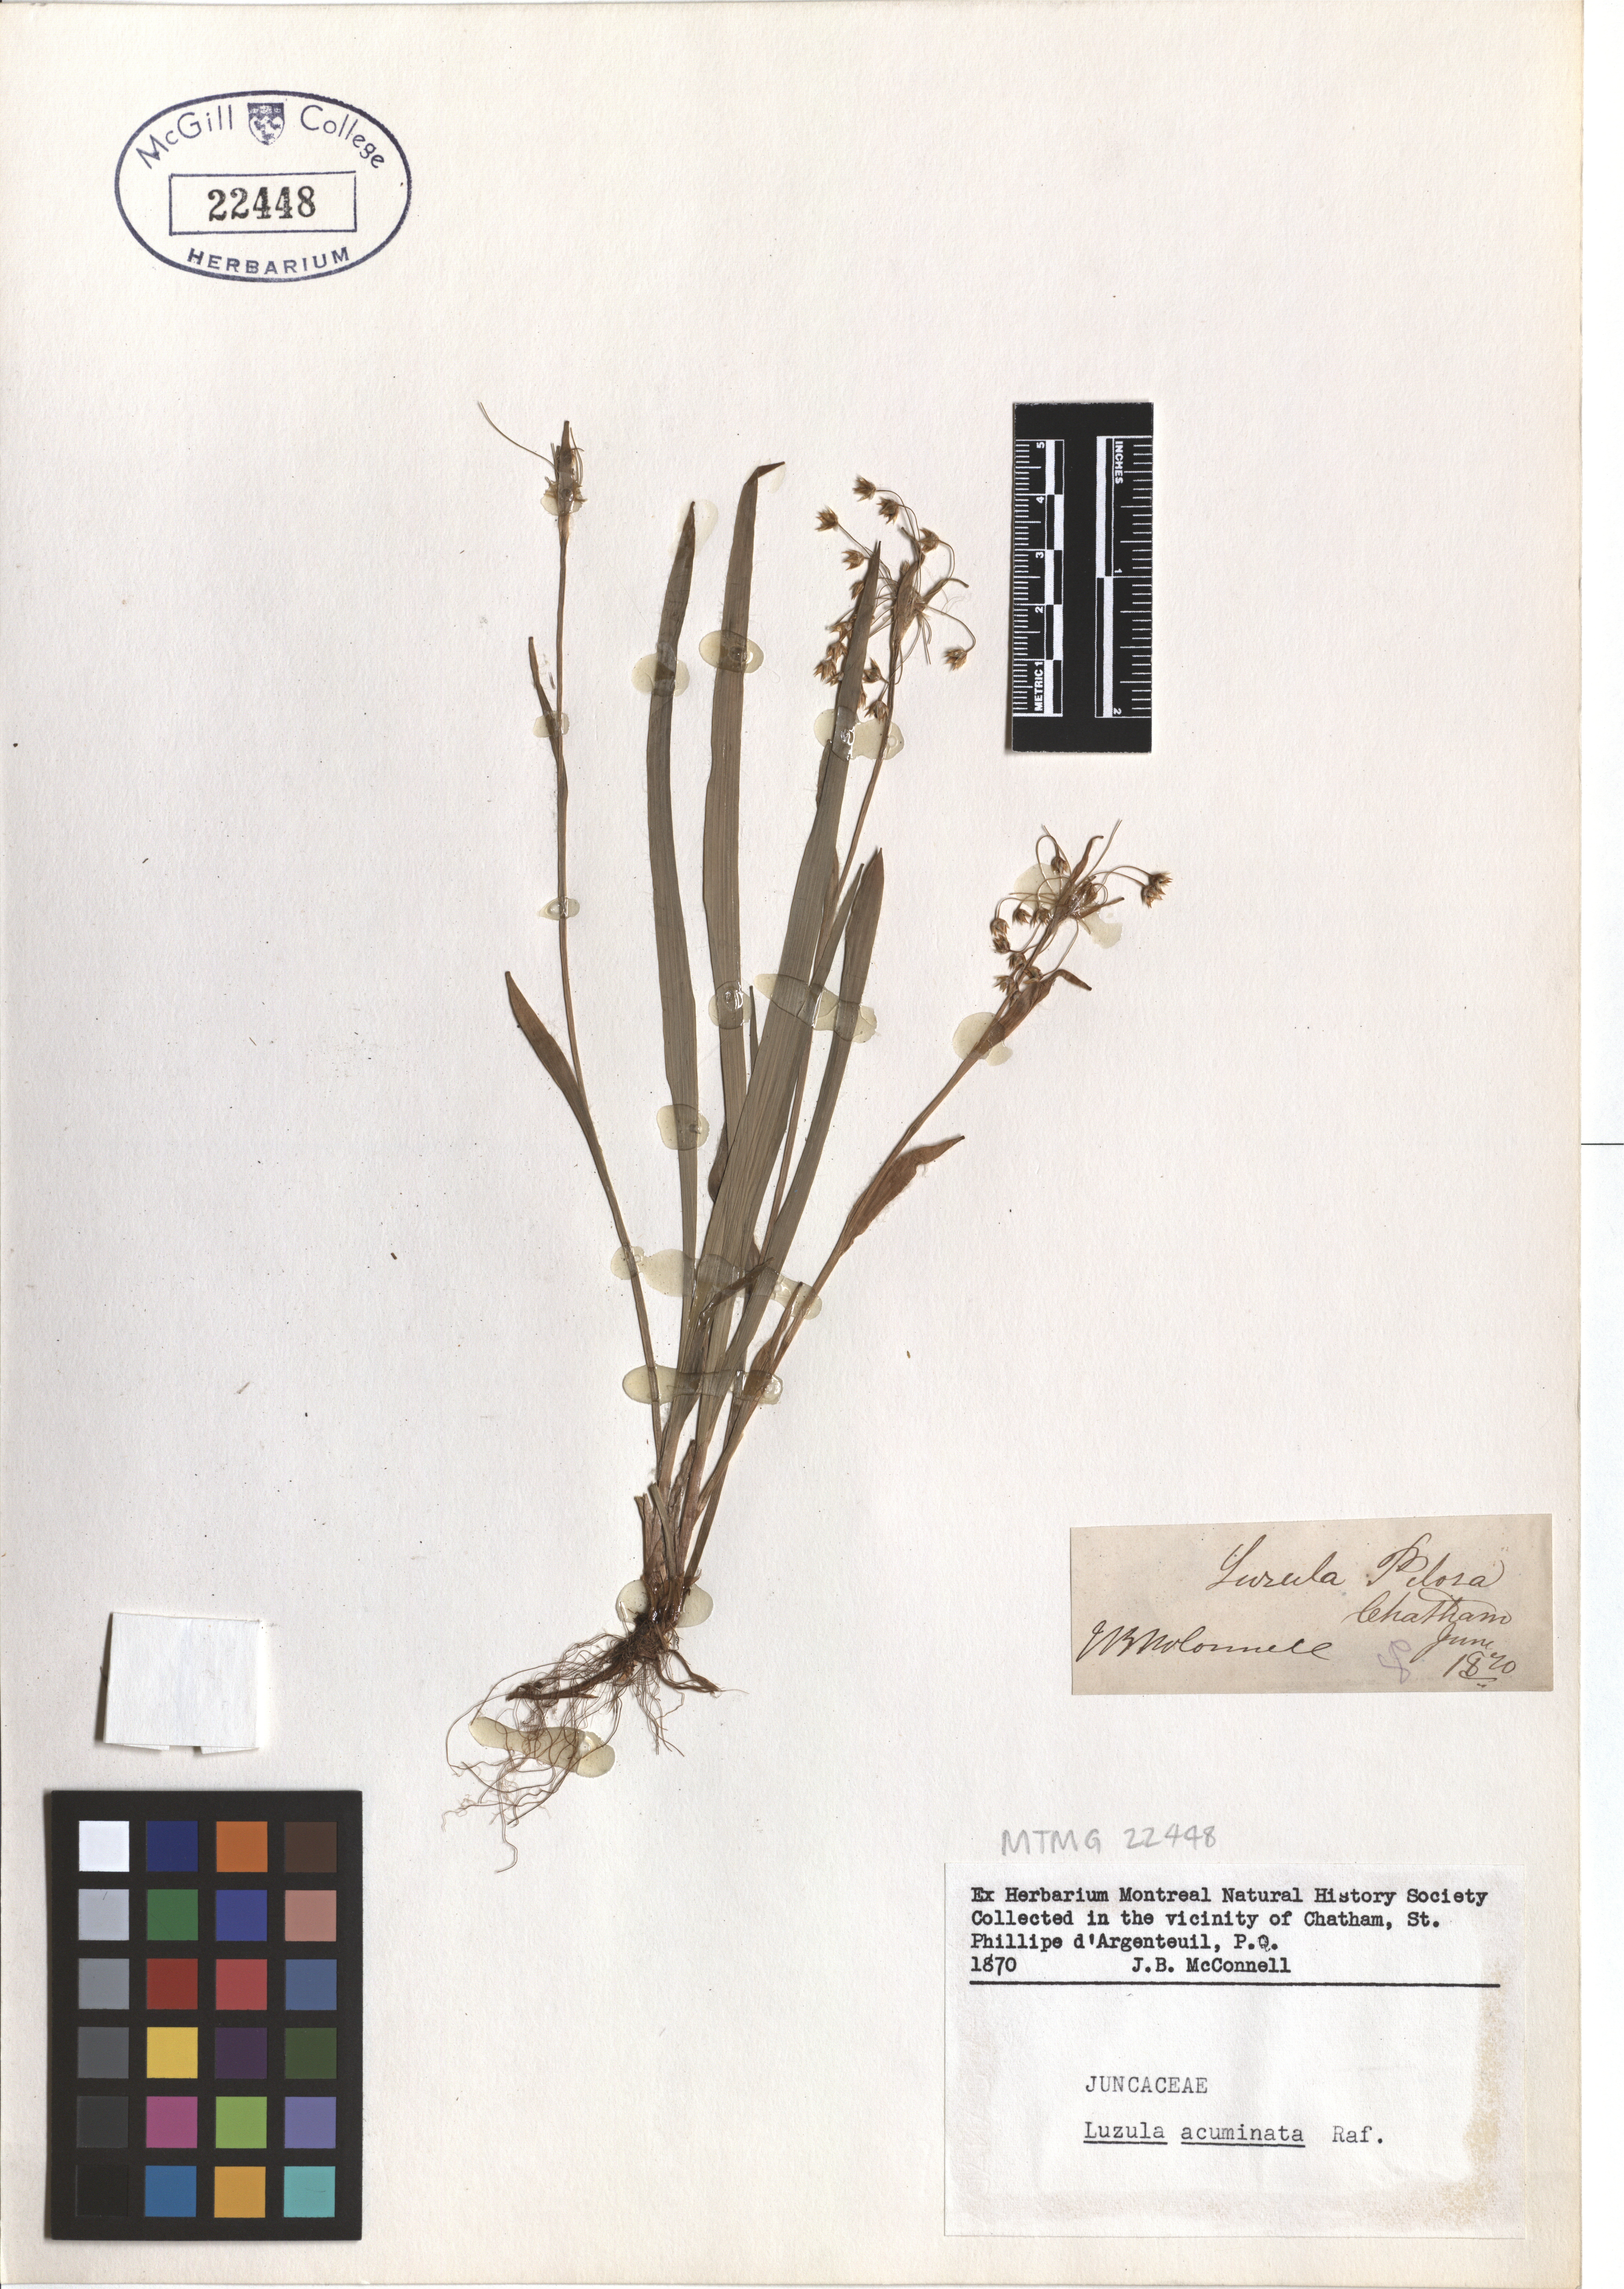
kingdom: Plantae
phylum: Tracheophyta
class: Liliopsida
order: Poales
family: Juncaceae
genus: Luzula
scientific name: Luzula acuminata
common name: Hairy woodrush
